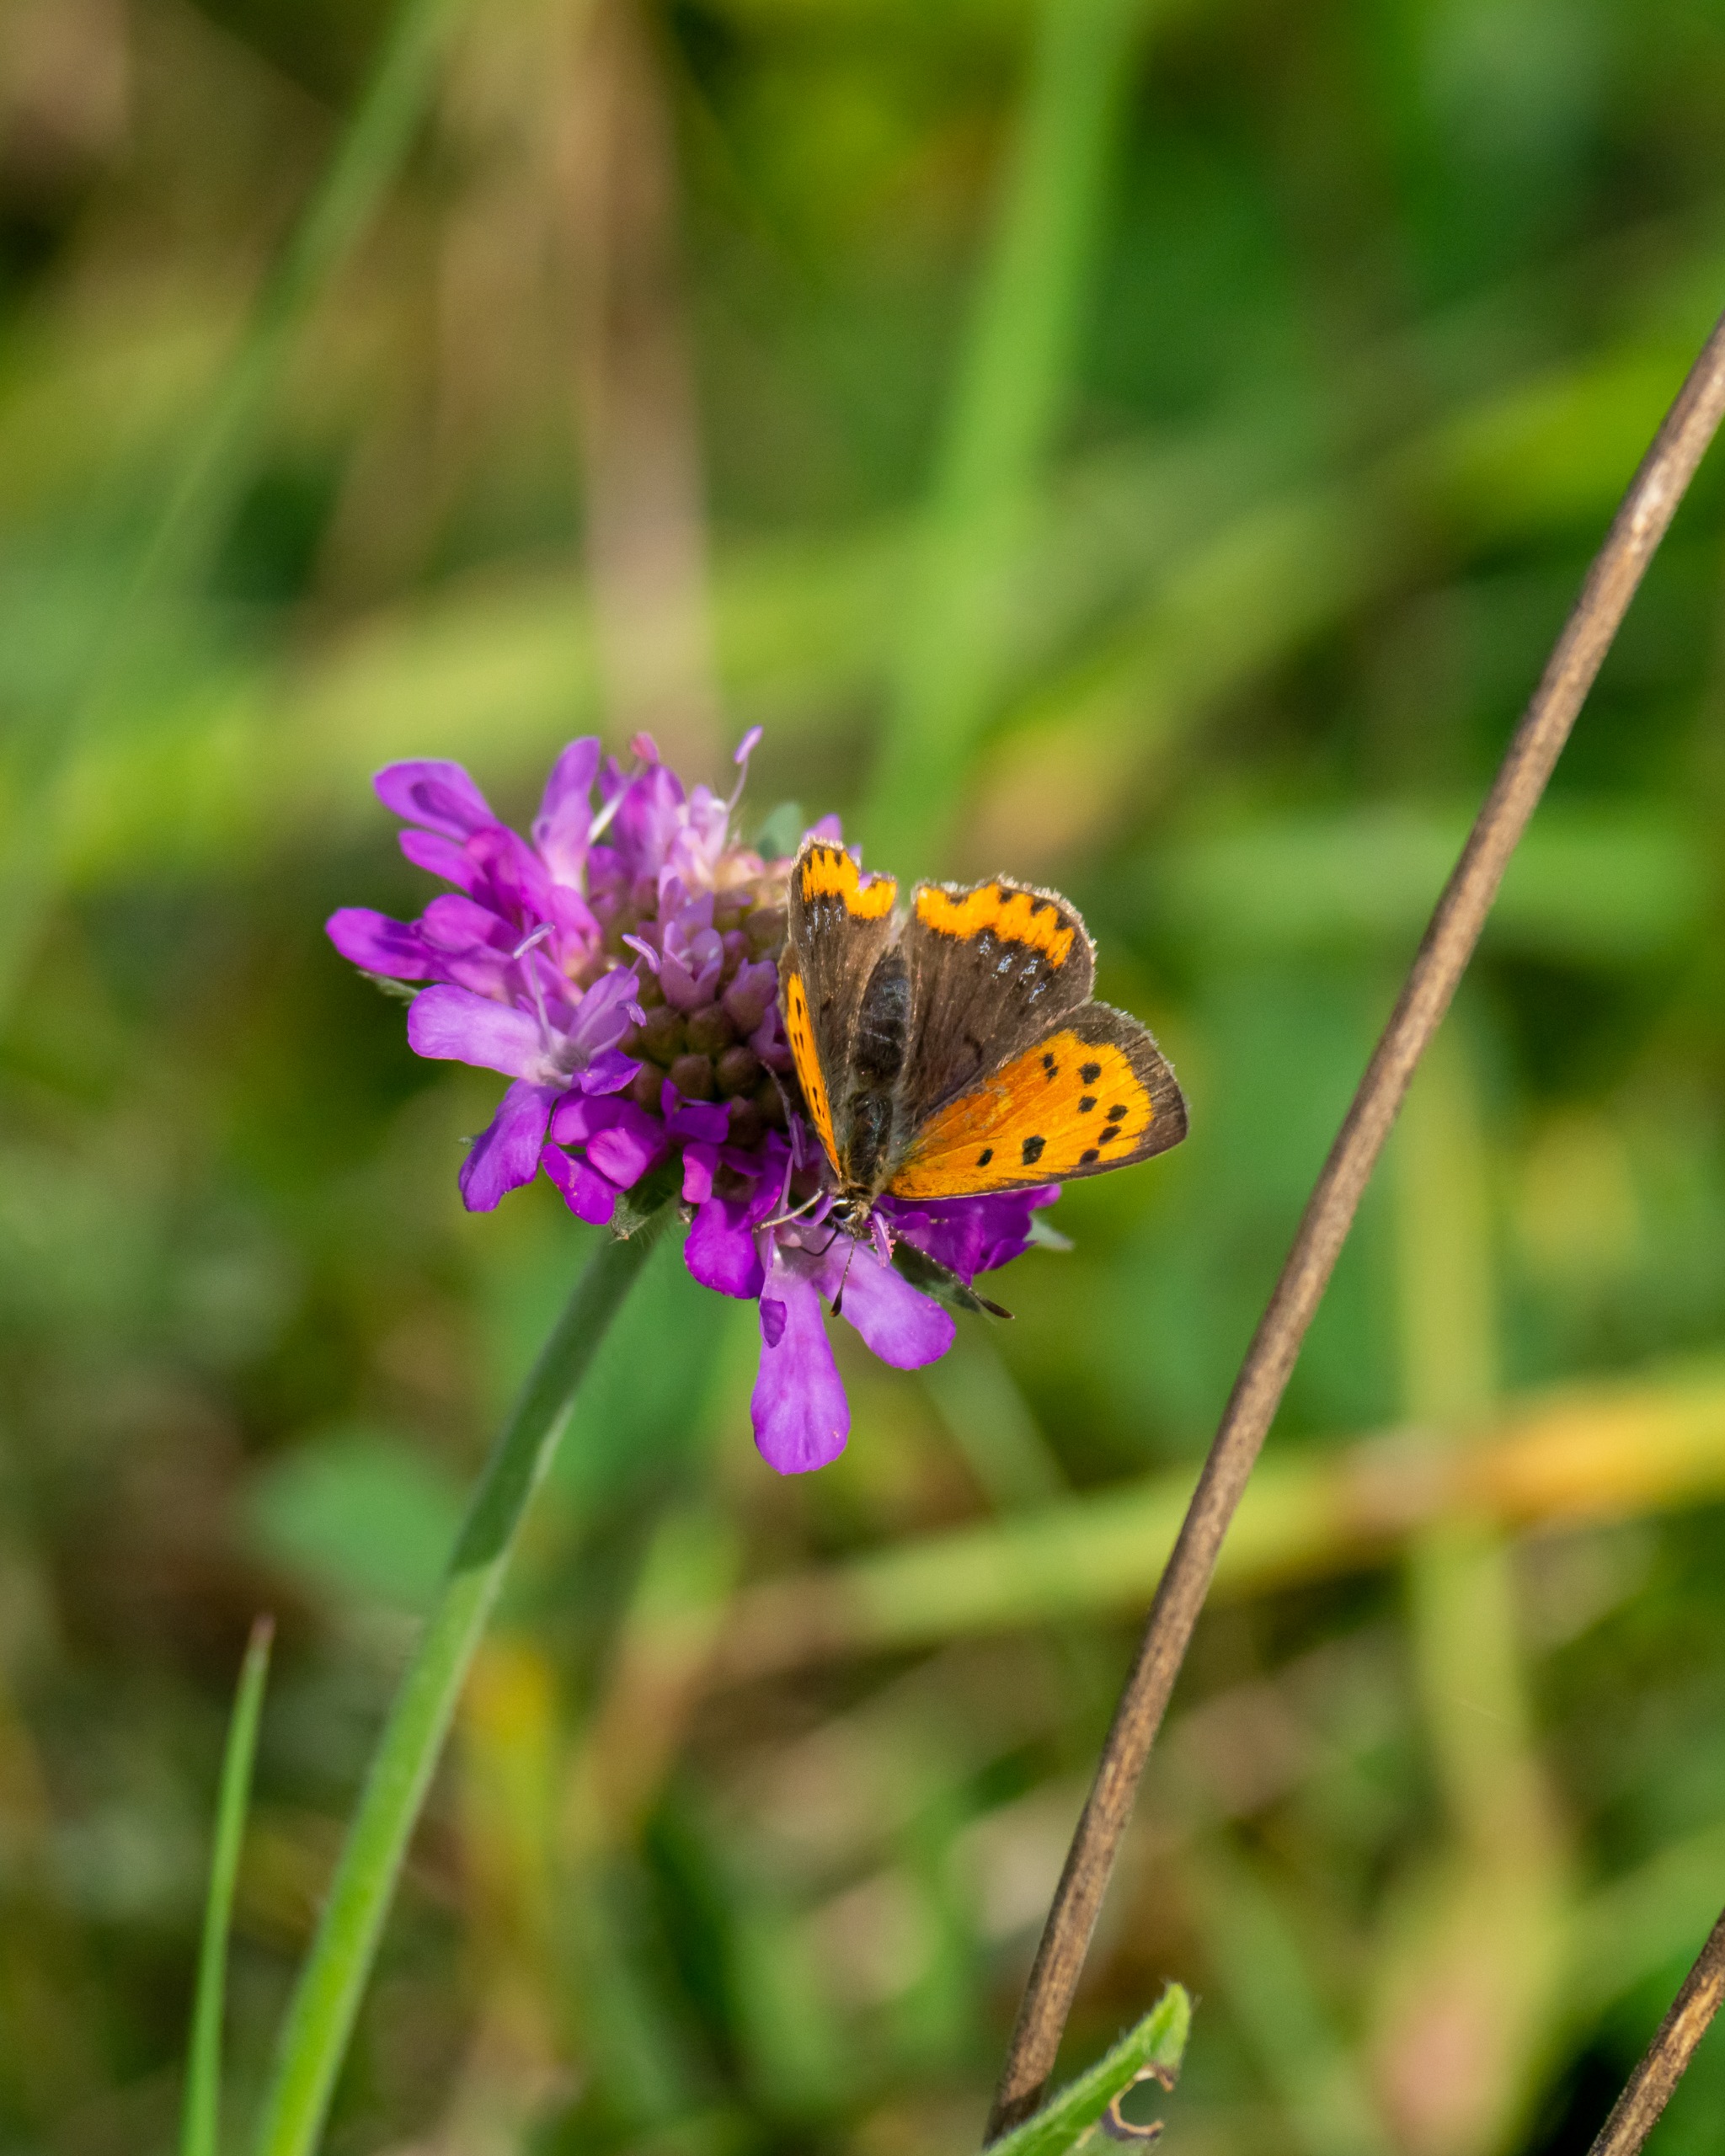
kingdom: Animalia
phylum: Arthropoda
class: Insecta
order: Lepidoptera
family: Lycaenidae
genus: Lycaena
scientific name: Lycaena phlaeas
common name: Lille ildfugl
